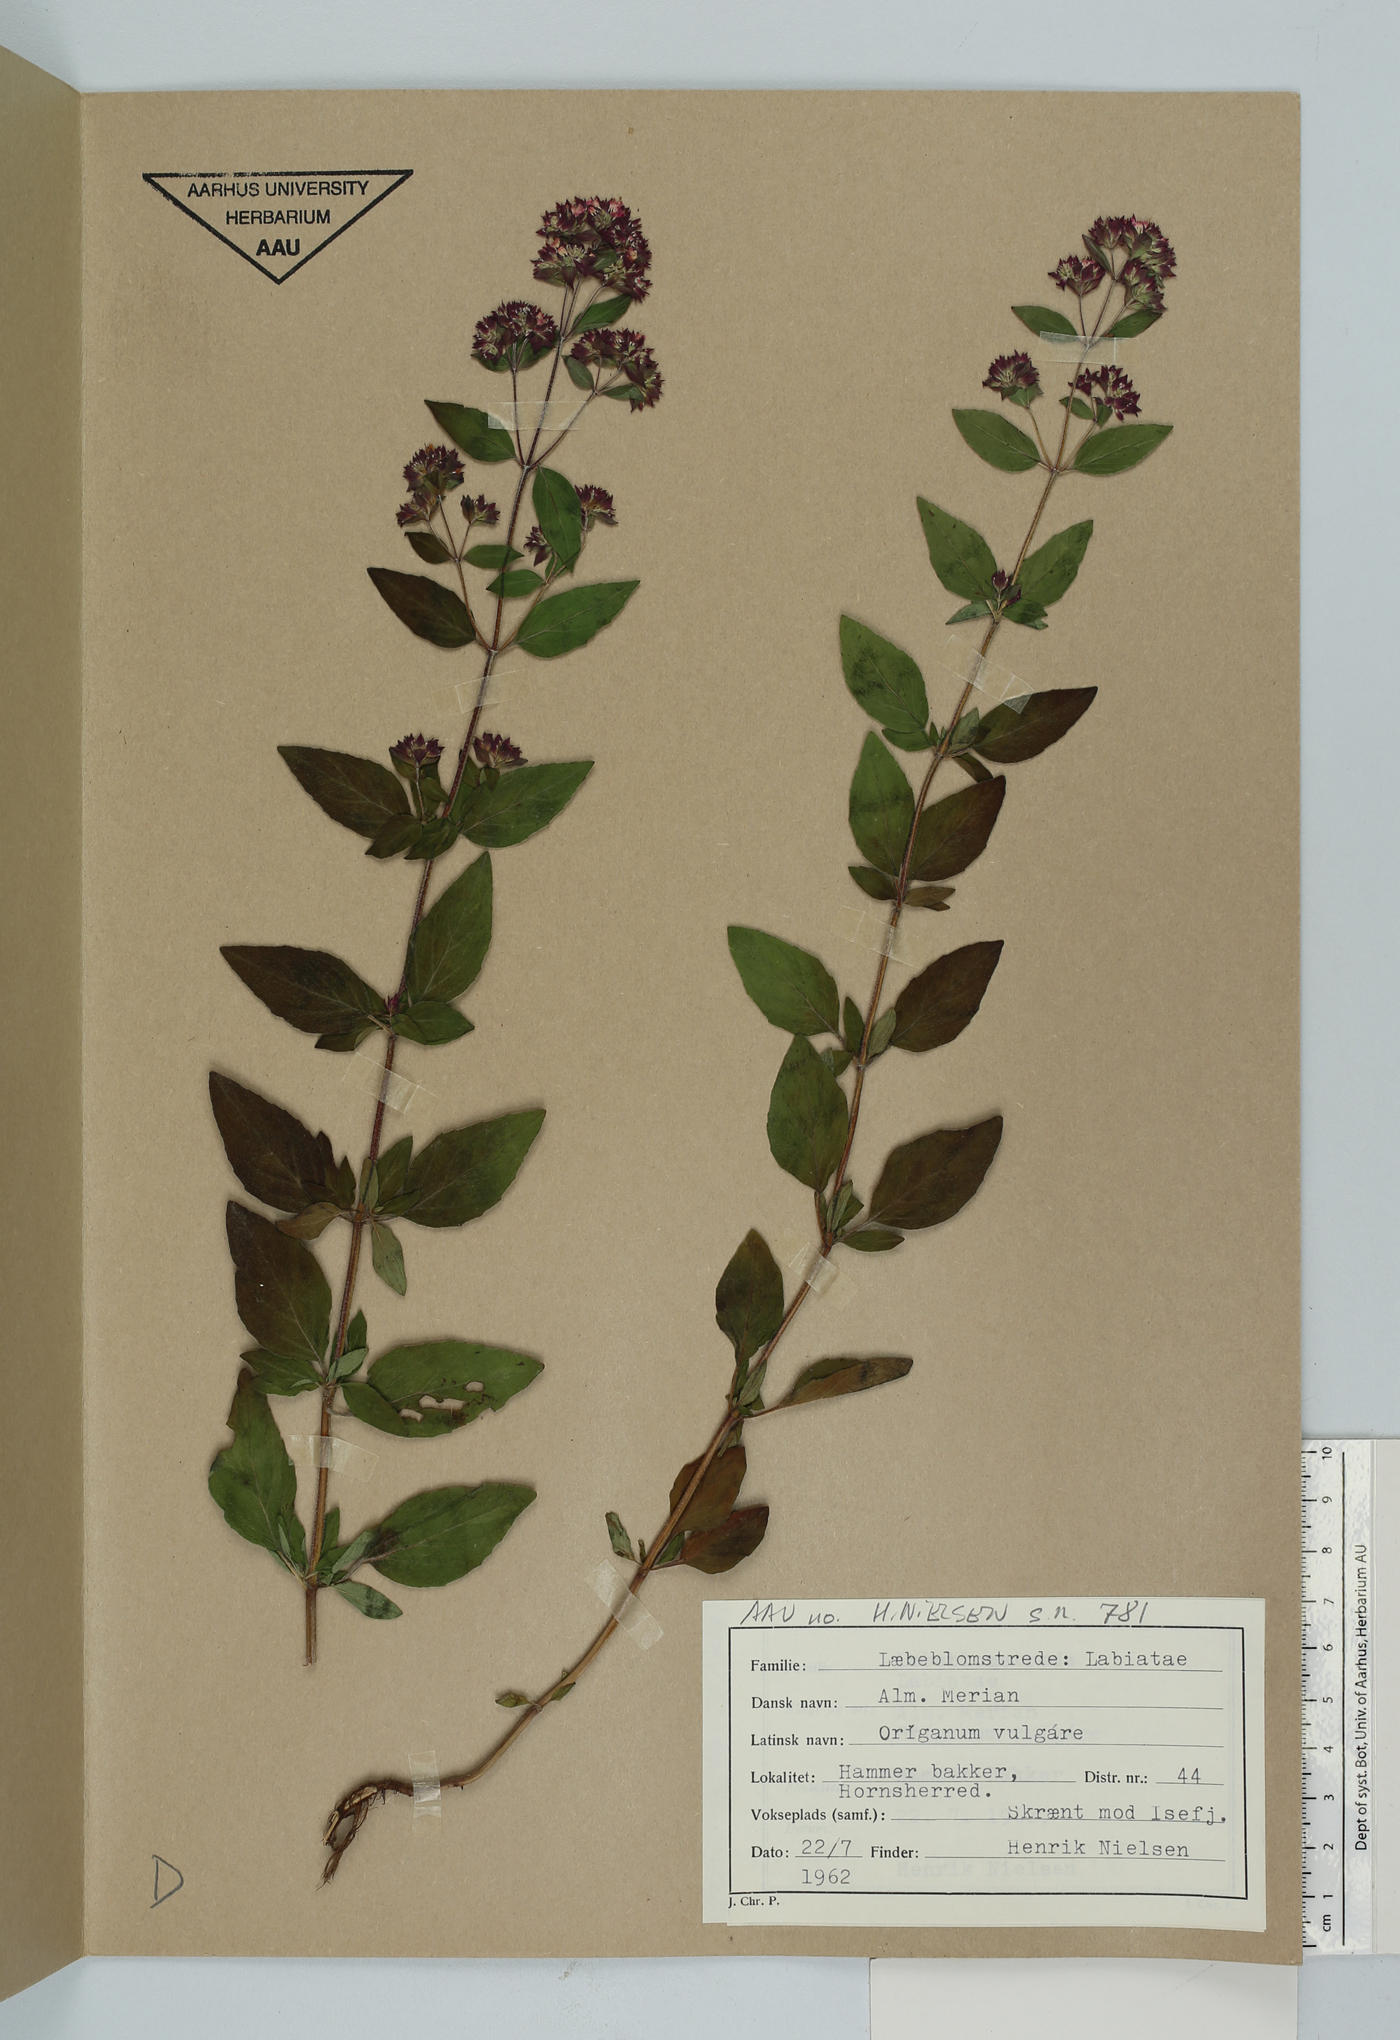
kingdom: Plantae
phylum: Tracheophyta
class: Magnoliopsida
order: Lamiales
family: Lamiaceae
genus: Origanum
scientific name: Origanum vulgare
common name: Wild marjoram
